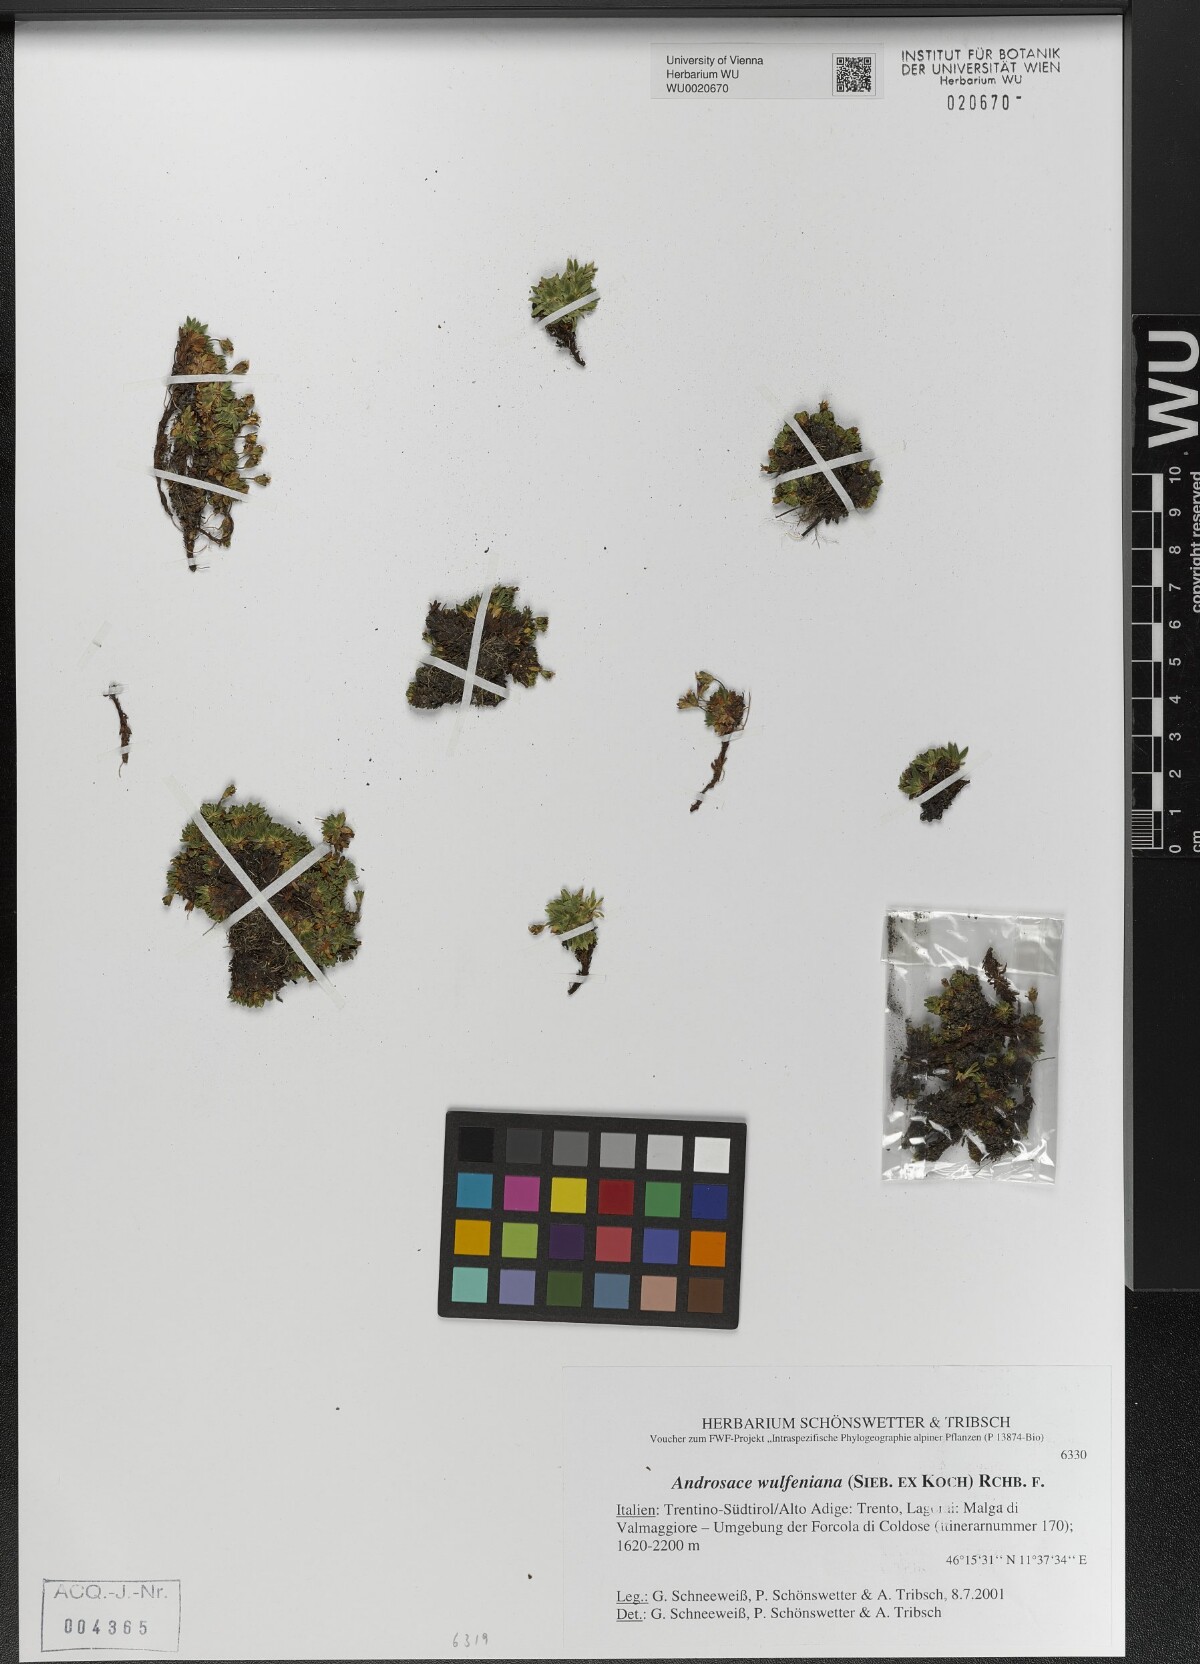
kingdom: Plantae
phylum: Tracheophyta
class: Magnoliopsida
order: Ericales
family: Primulaceae
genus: Androsace
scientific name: Androsace wulfeniana
